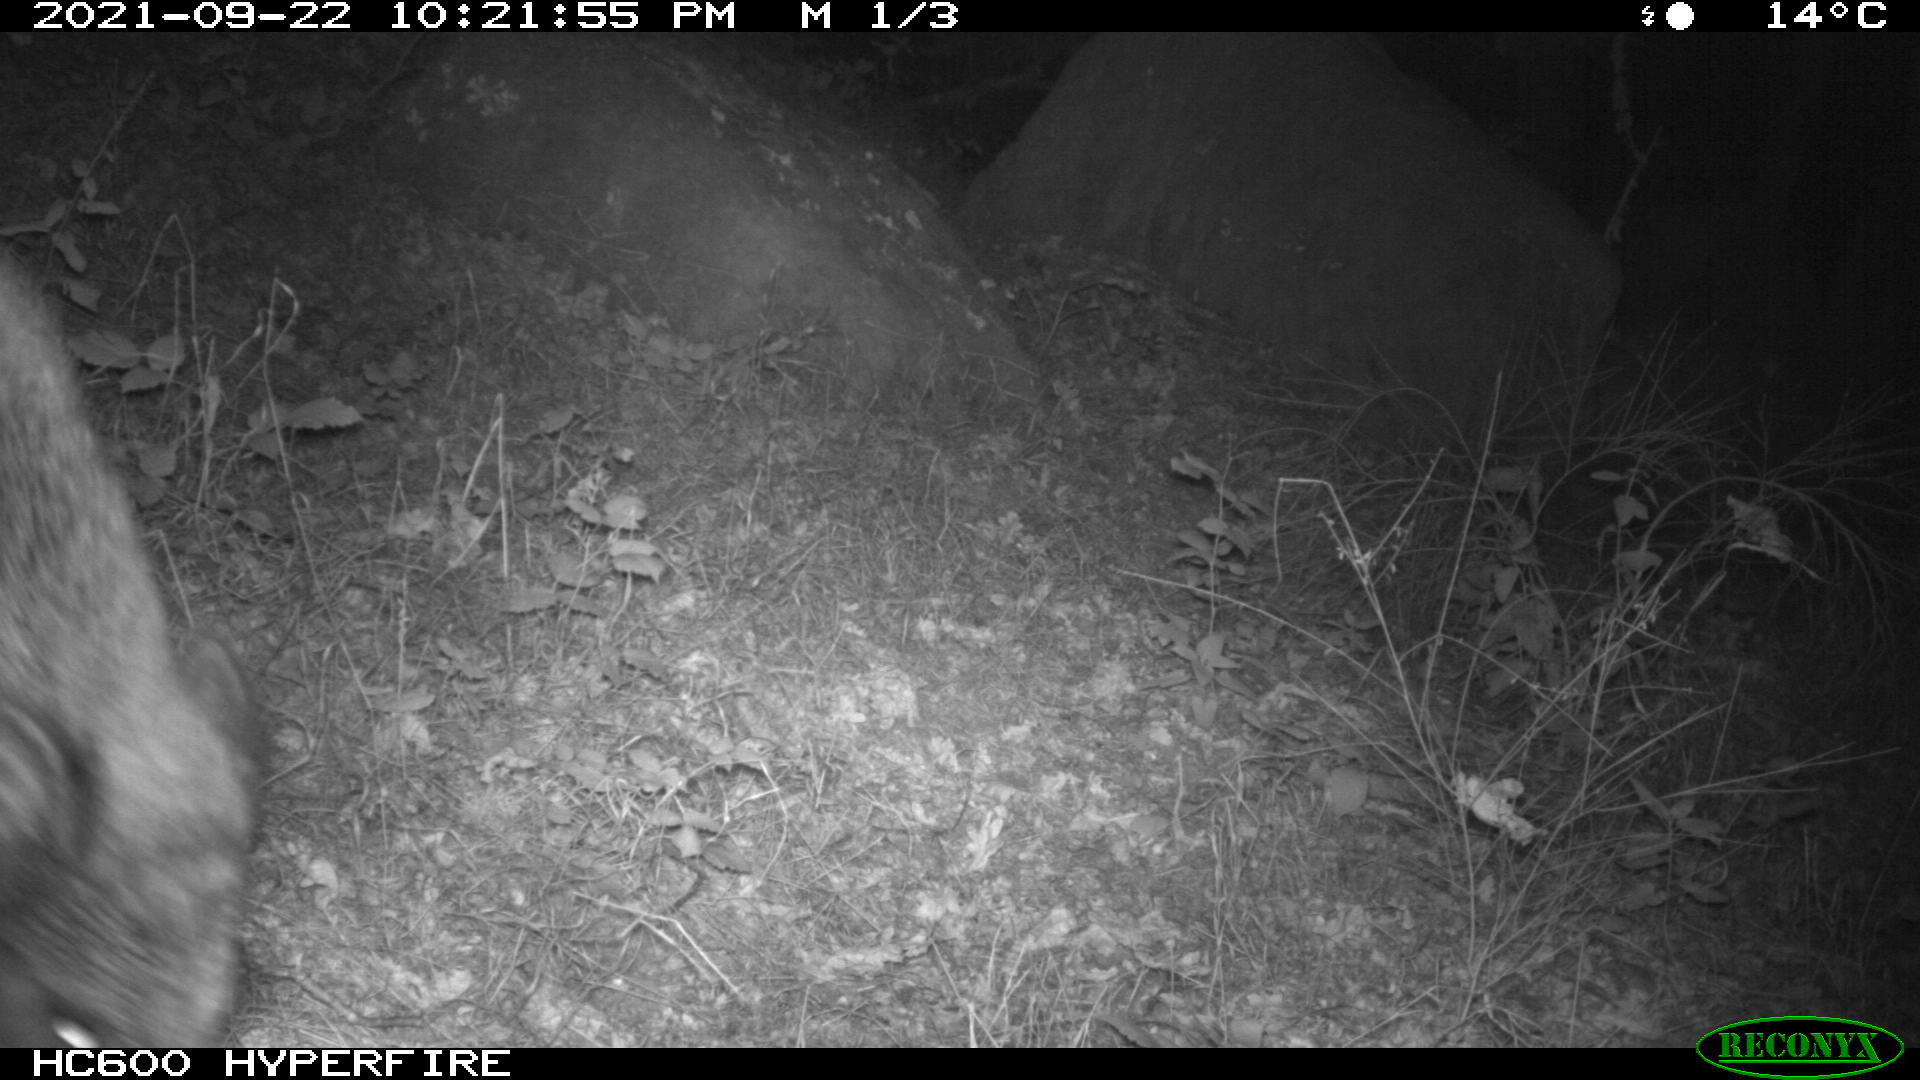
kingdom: Animalia
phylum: Chordata
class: Mammalia
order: Artiodactyla
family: Suidae
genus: Sus
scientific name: Sus scrofa
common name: Wild boar
